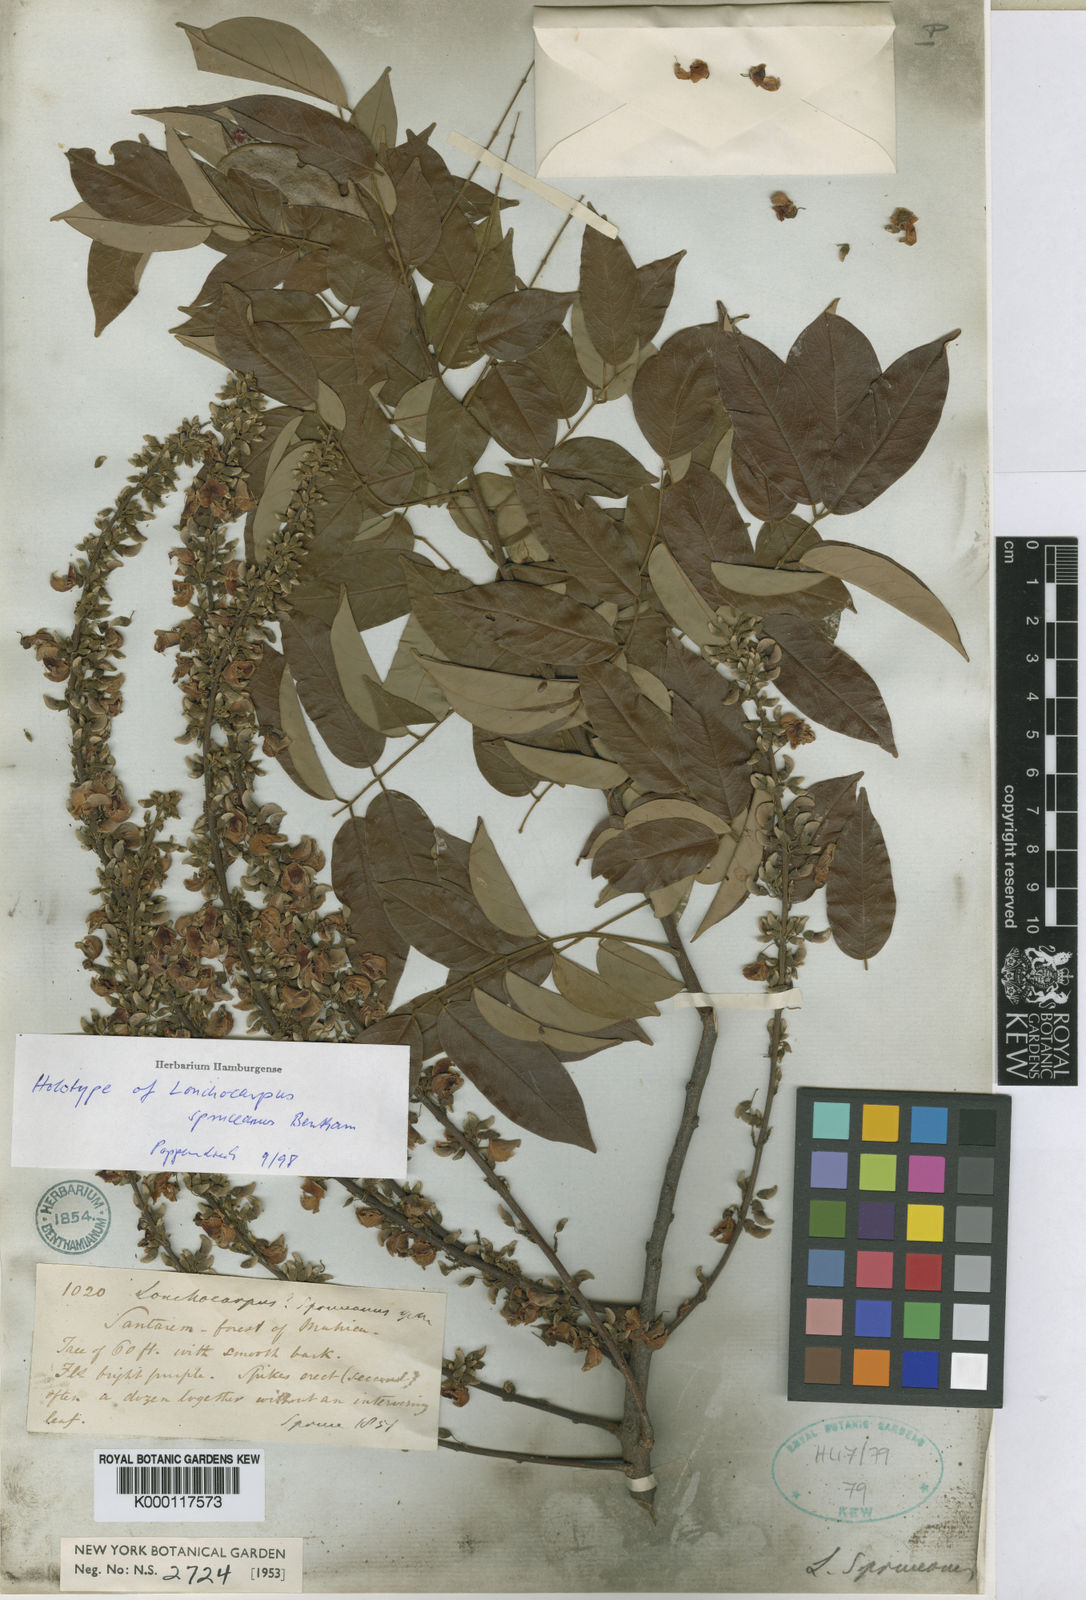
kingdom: Plantae
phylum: Tracheophyta
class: Magnoliopsida
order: Fabales
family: Fabaceae
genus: Deguelia
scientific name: Deguelia spruceana
